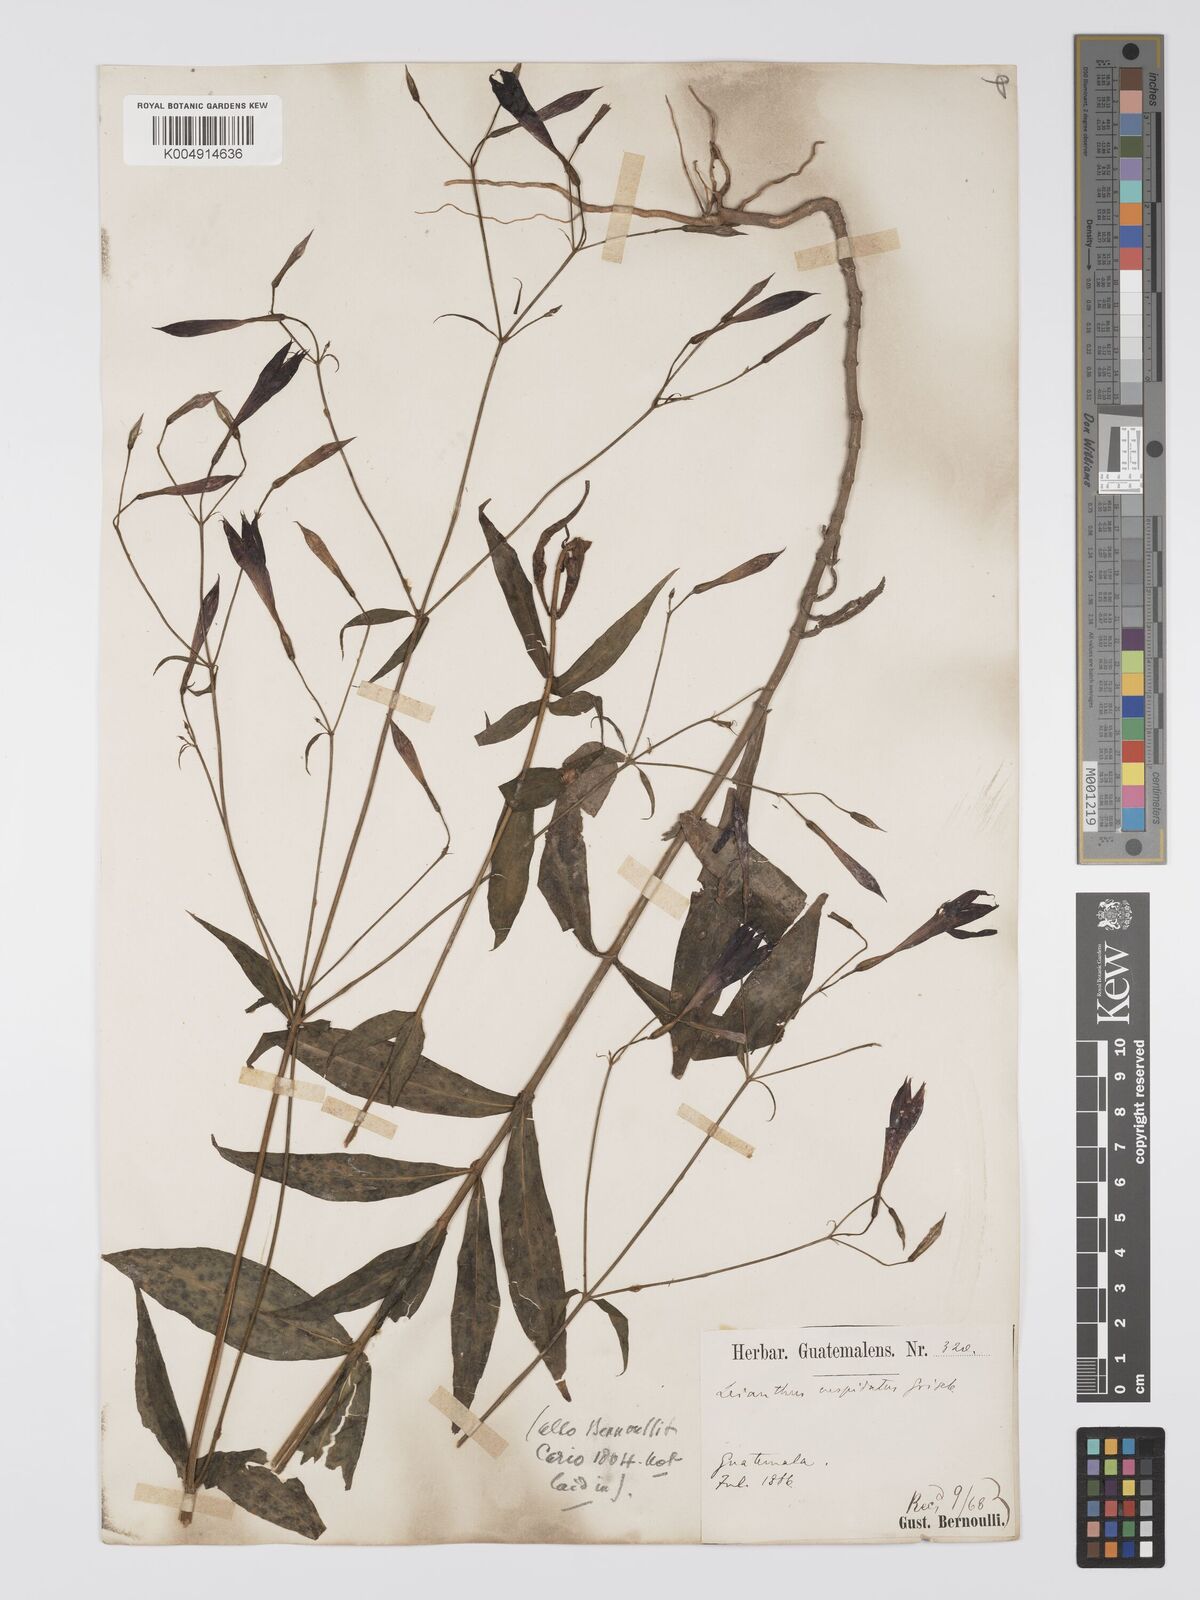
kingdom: Plantae
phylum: Tracheophyta
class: Magnoliopsida
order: Gentianales
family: Gentianaceae
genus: Lisianthius
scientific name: Lisianthius cuspidatus
